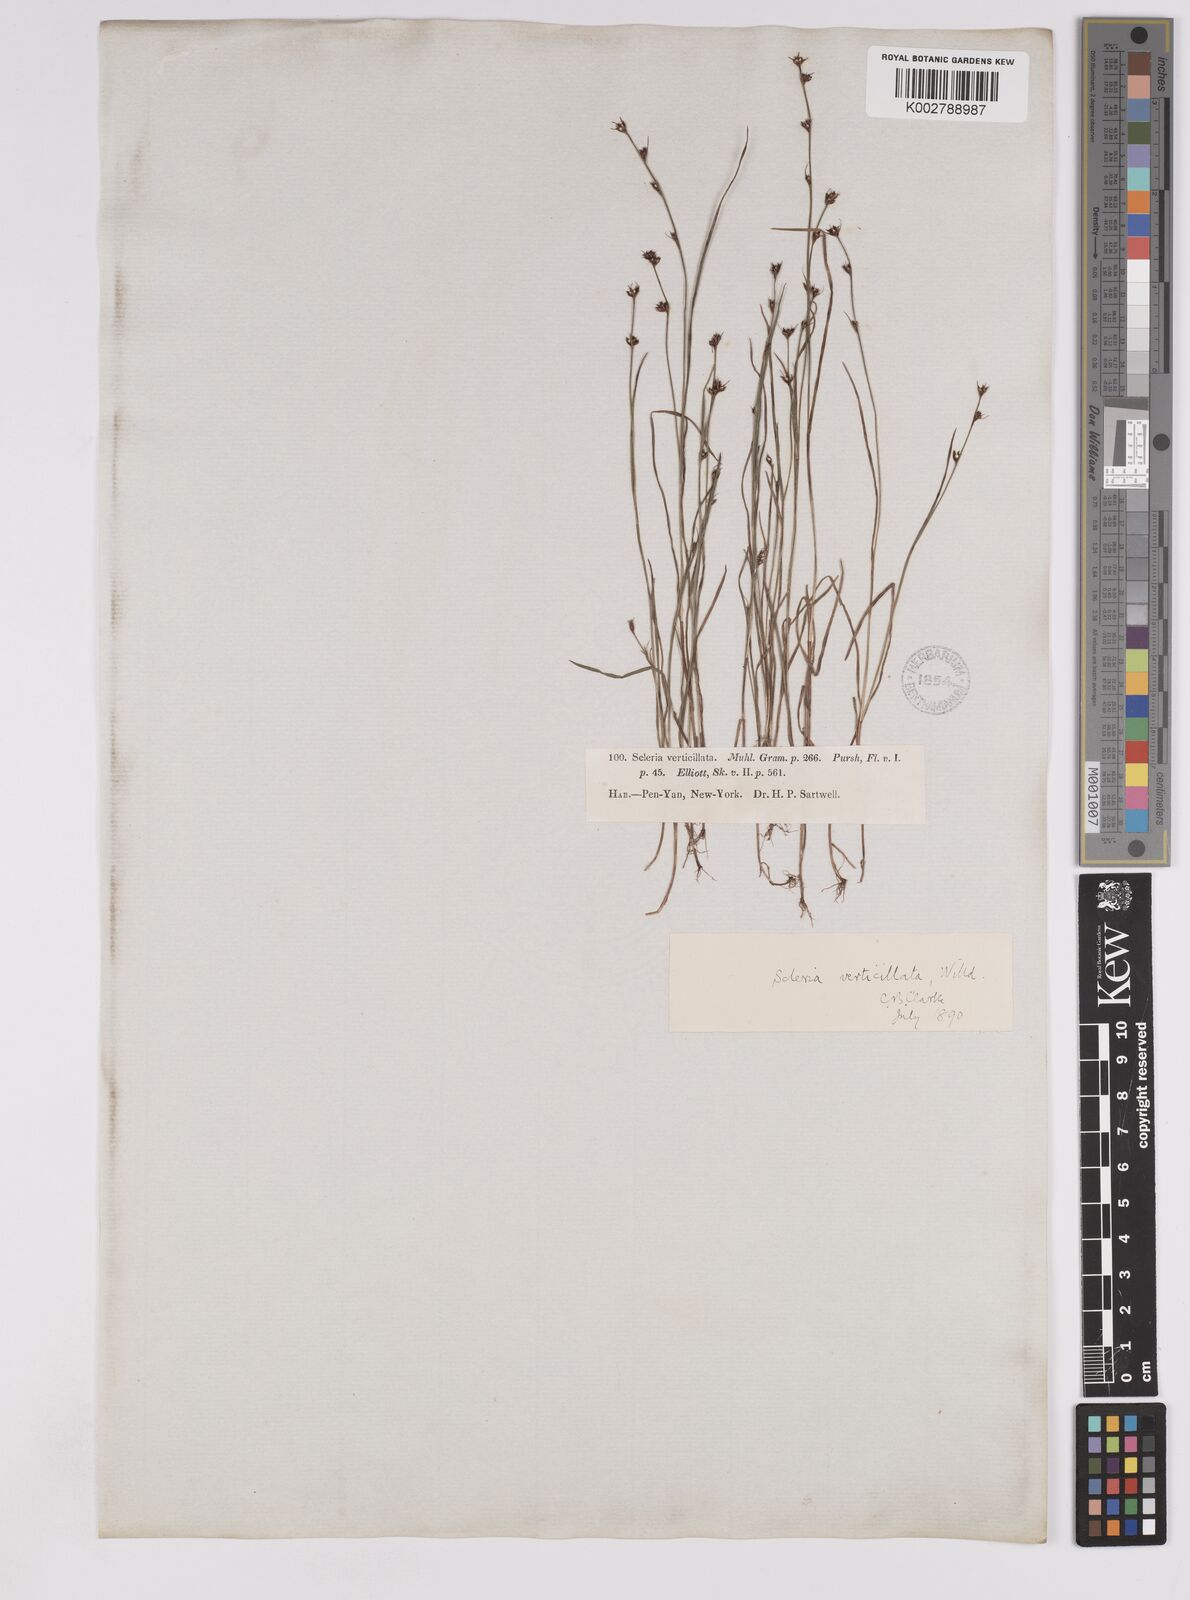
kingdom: Plantae
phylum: Tracheophyta
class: Liliopsida
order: Poales
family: Cyperaceae
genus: Scleria
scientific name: Scleria verticillata
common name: Low nutrush
